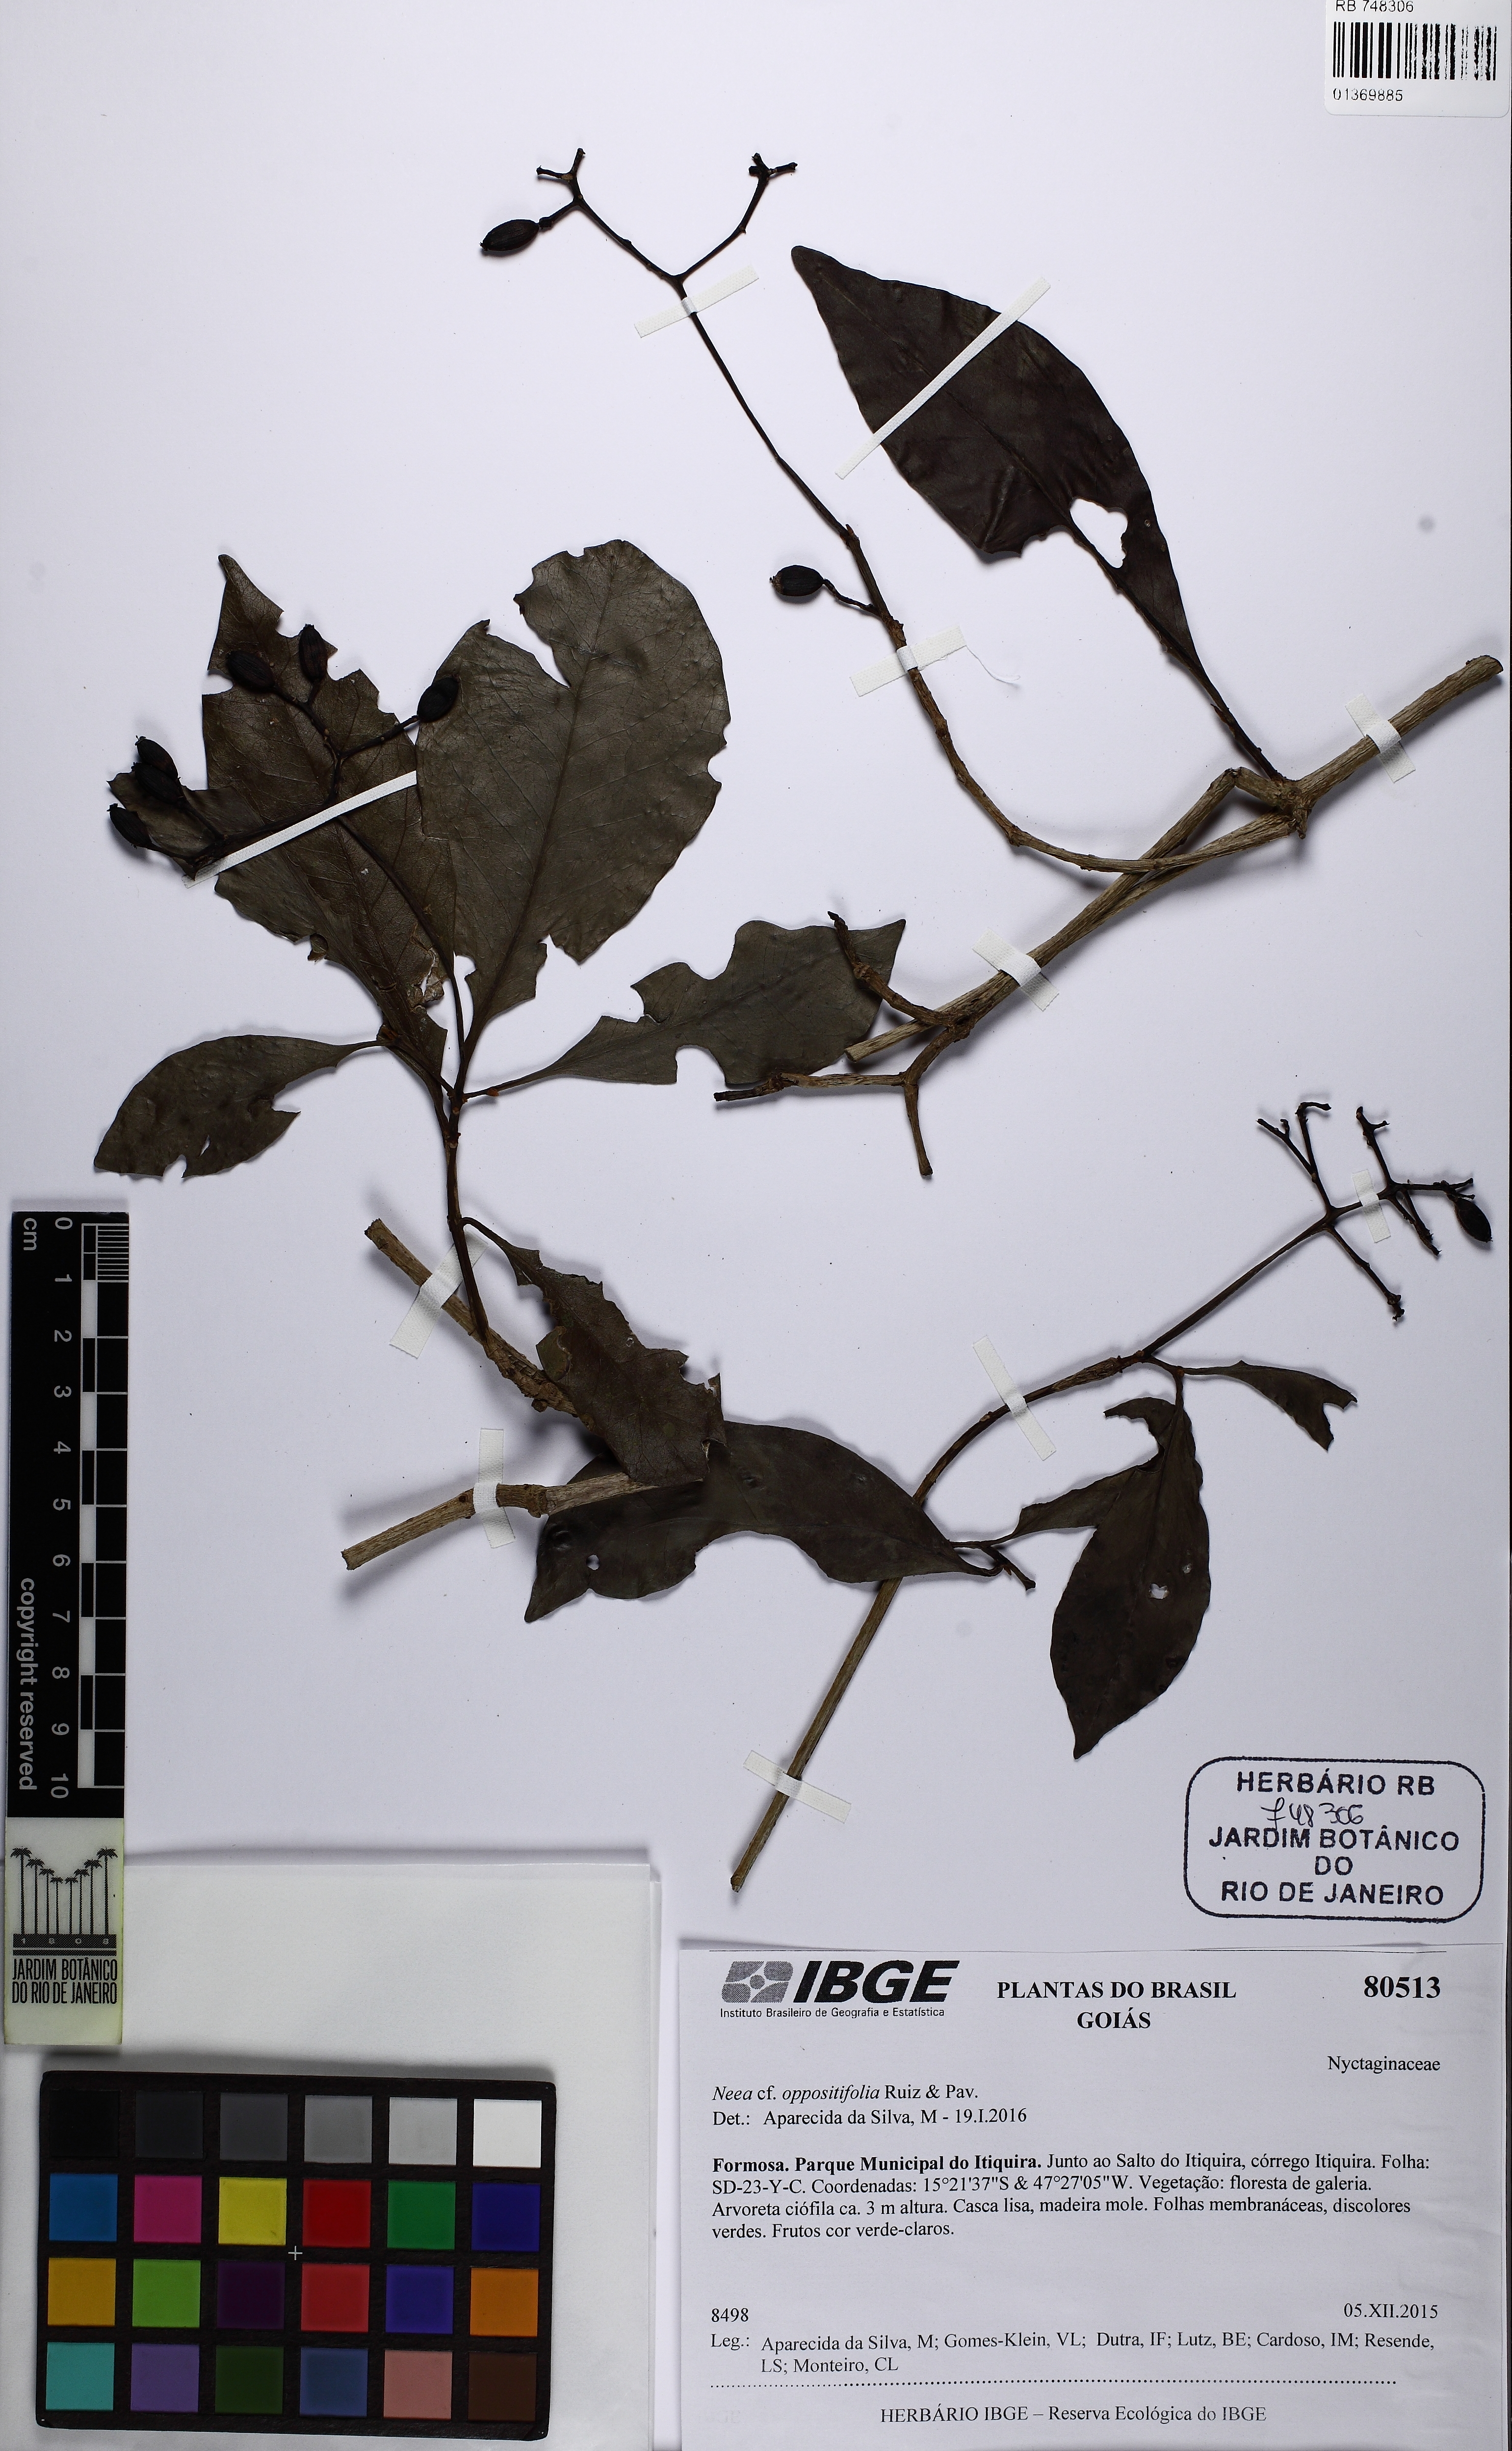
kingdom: Plantae
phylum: Tracheophyta
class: Magnoliopsida
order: Caryophyllales
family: Nyctaginaceae
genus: Neea
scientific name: Neea oppositifolia
